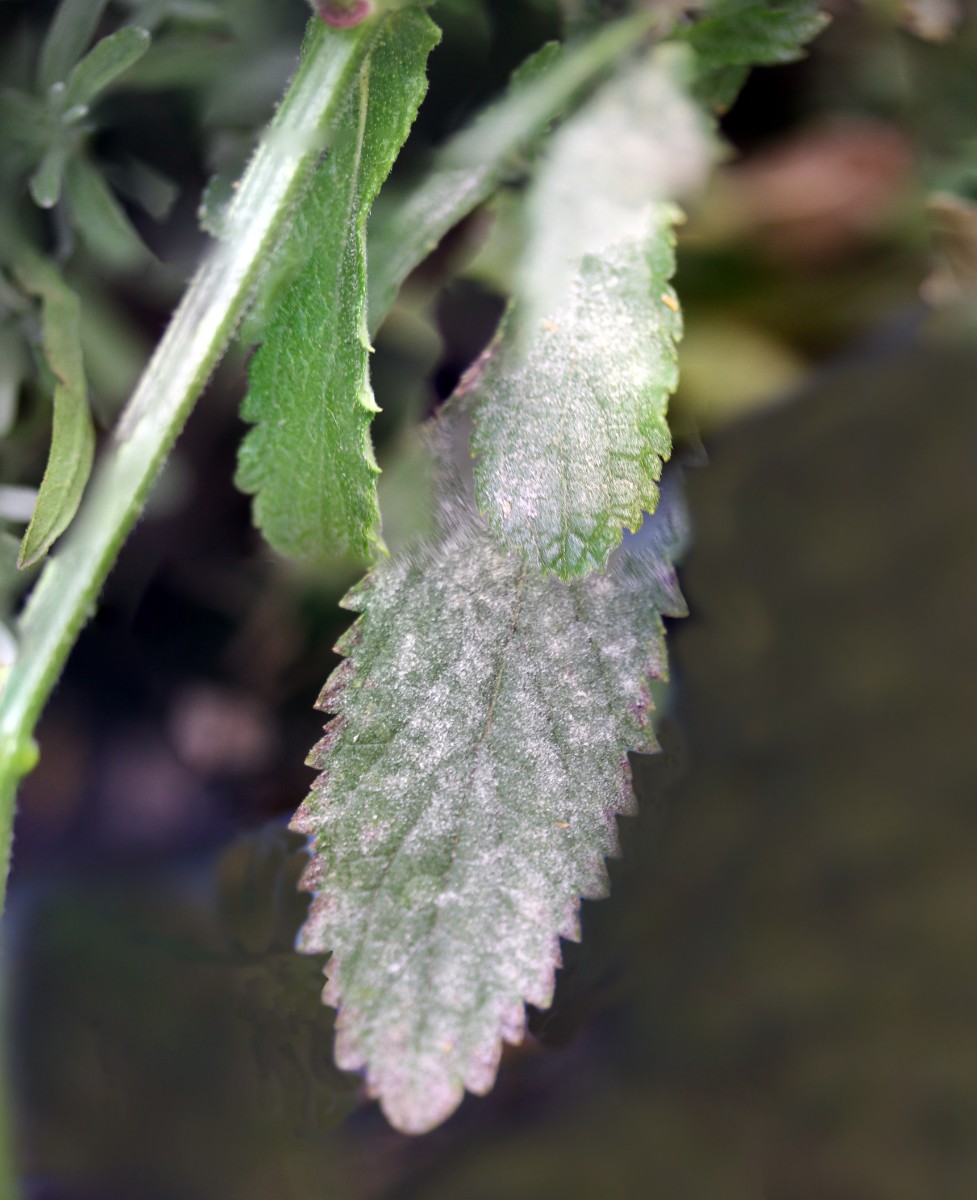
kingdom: Fungi
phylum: Ascomycota
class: Leotiomycetes
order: Helotiales
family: Erysiphaceae
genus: Golovinomyces
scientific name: Golovinomyces orontii
